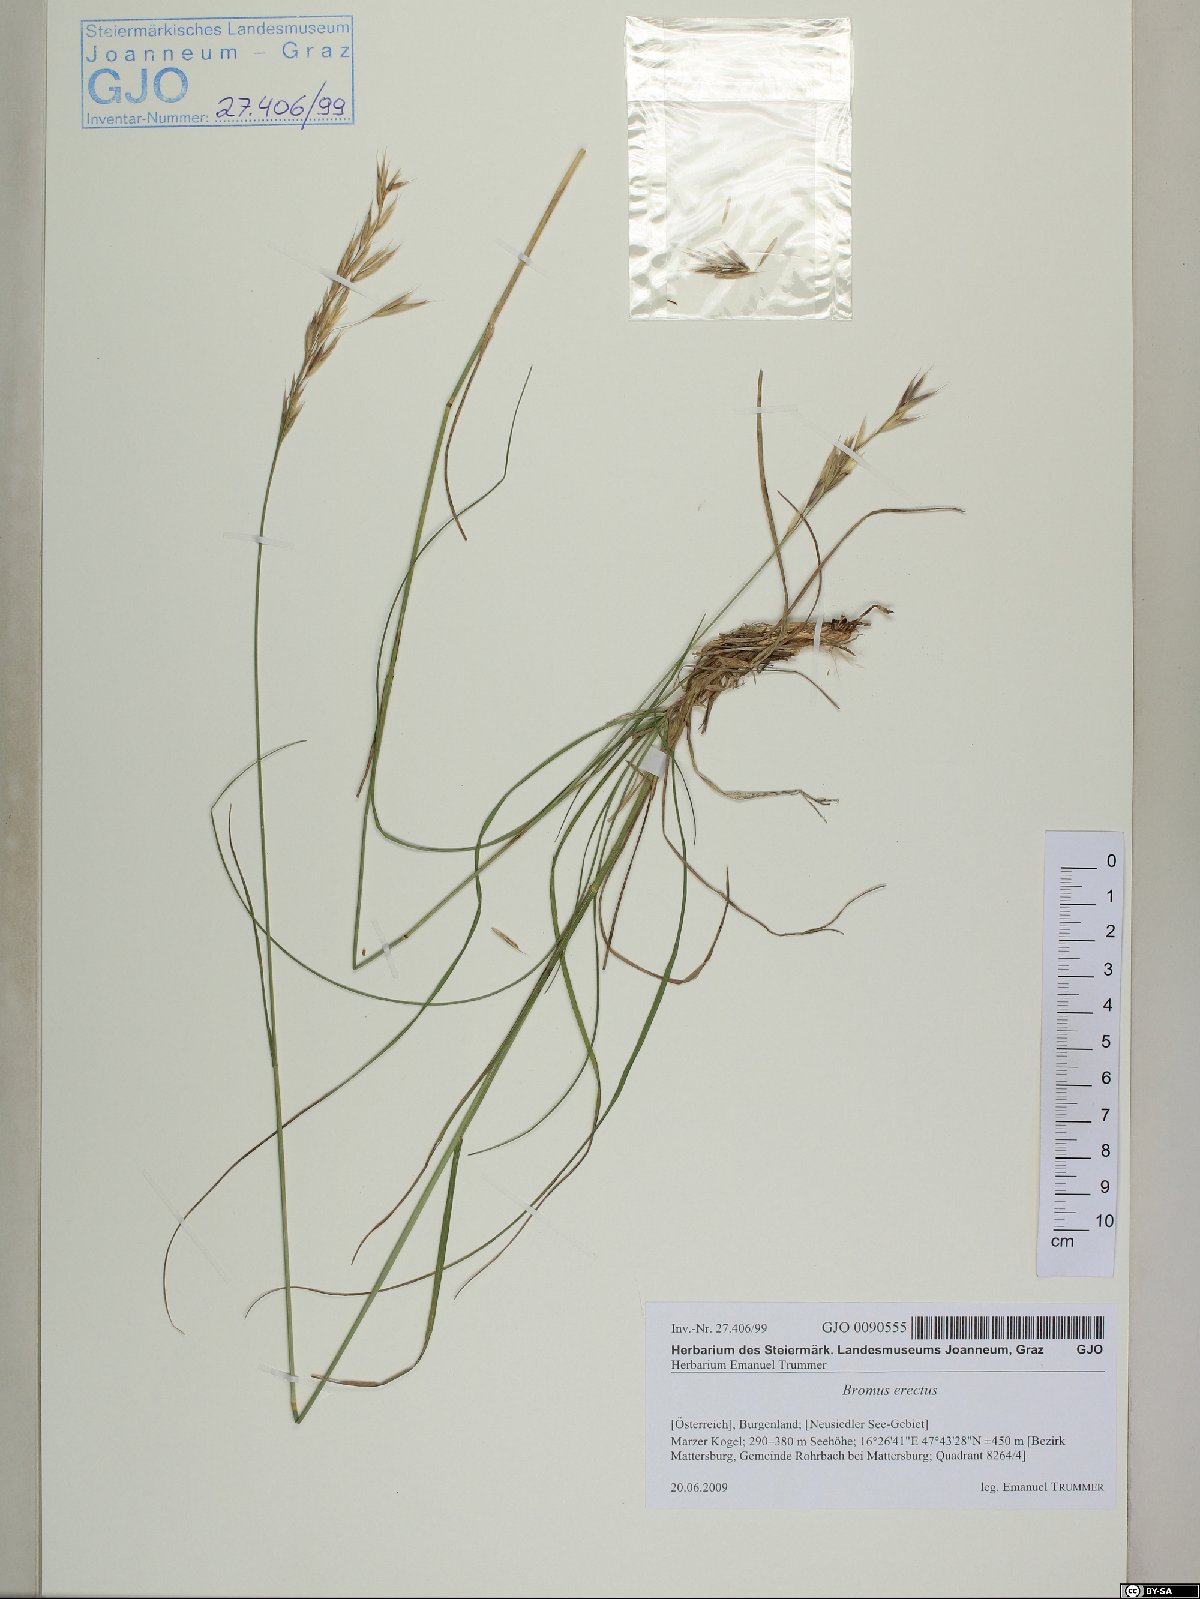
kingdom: Plantae
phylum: Tracheophyta
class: Liliopsida
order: Poales
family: Poaceae
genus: Bromus
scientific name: Bromus erectus
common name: Erect brome
